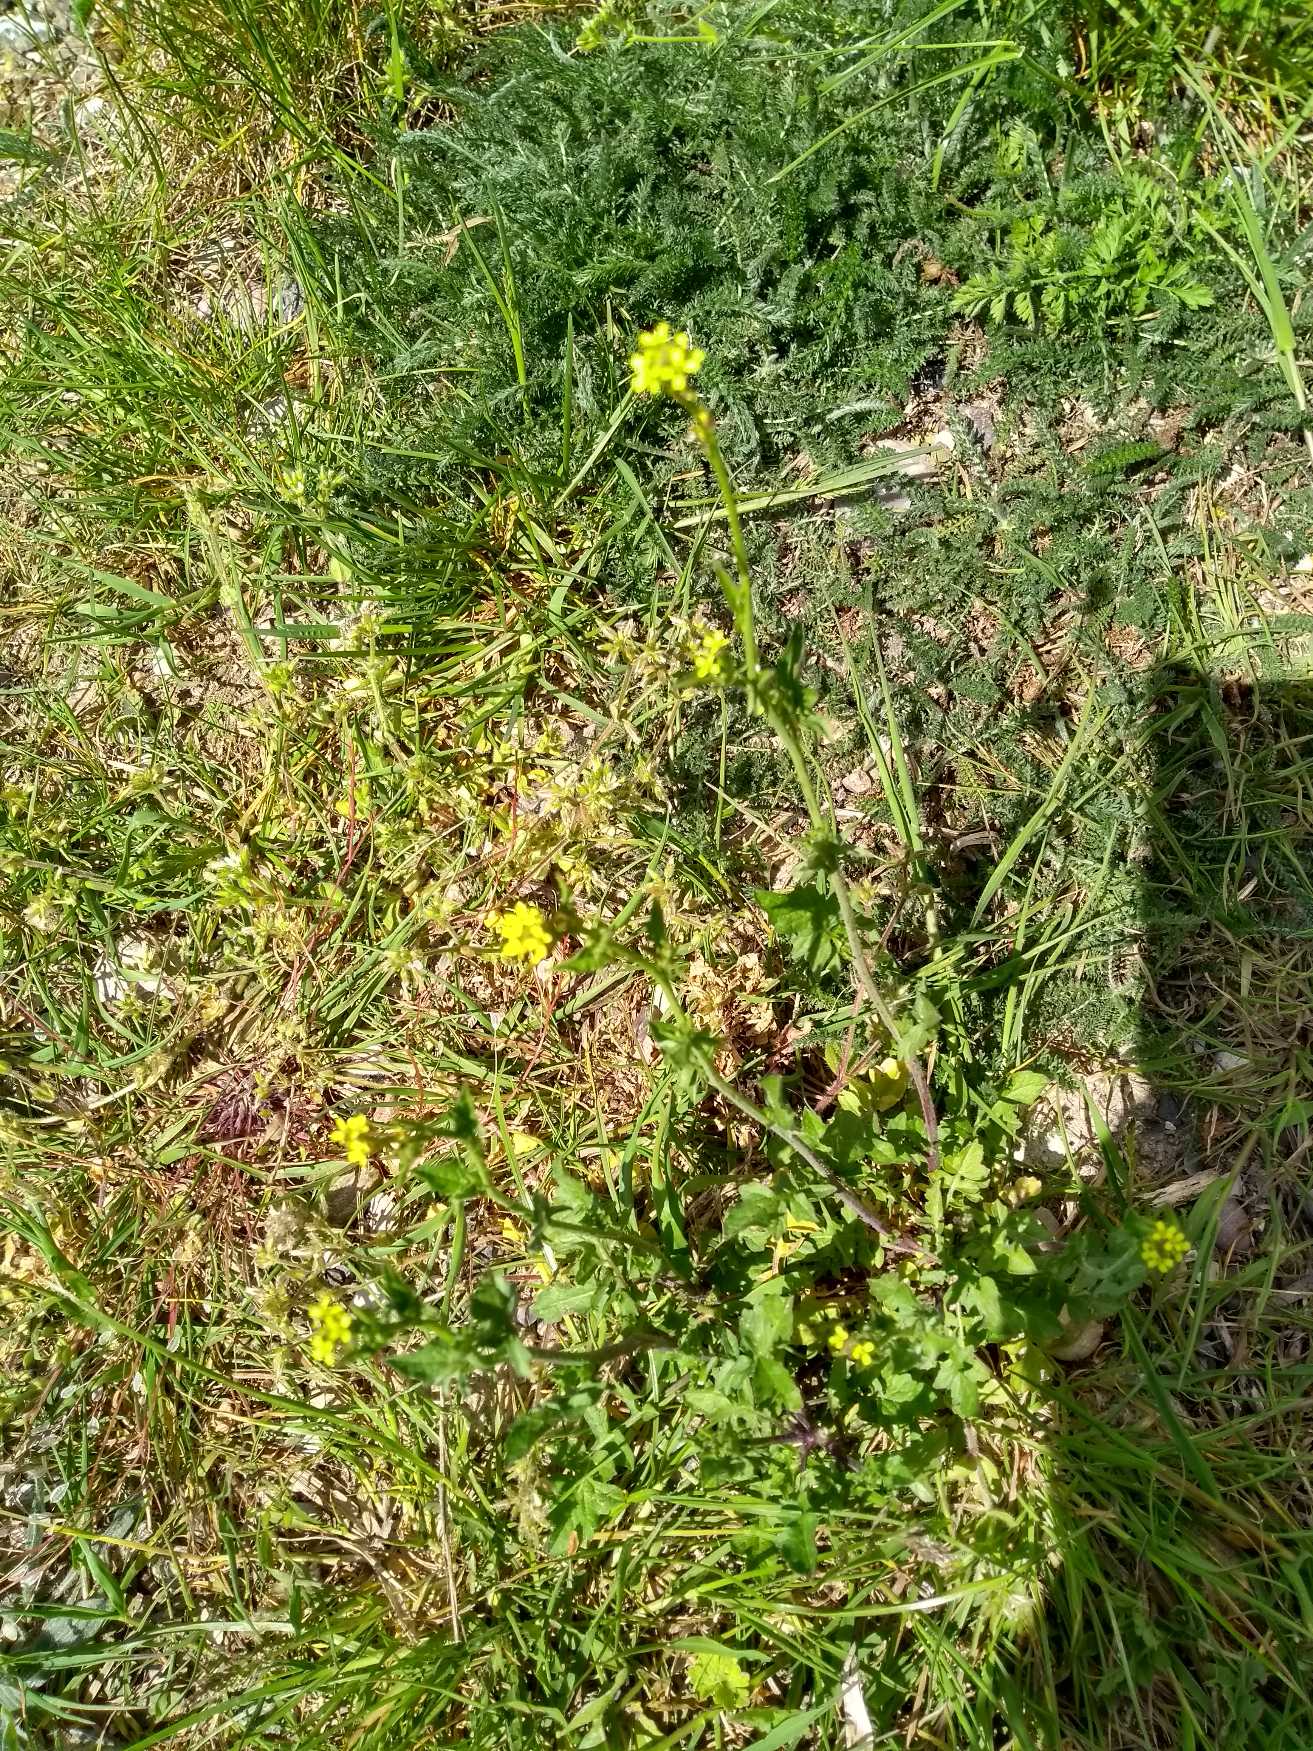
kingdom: Plantae
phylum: Tracheophyta
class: Magnoliopsida
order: Brassicales
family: Brassicaceae
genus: Sisymbrium
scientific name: Sisymbrium officinale
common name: Rank vejsennep
